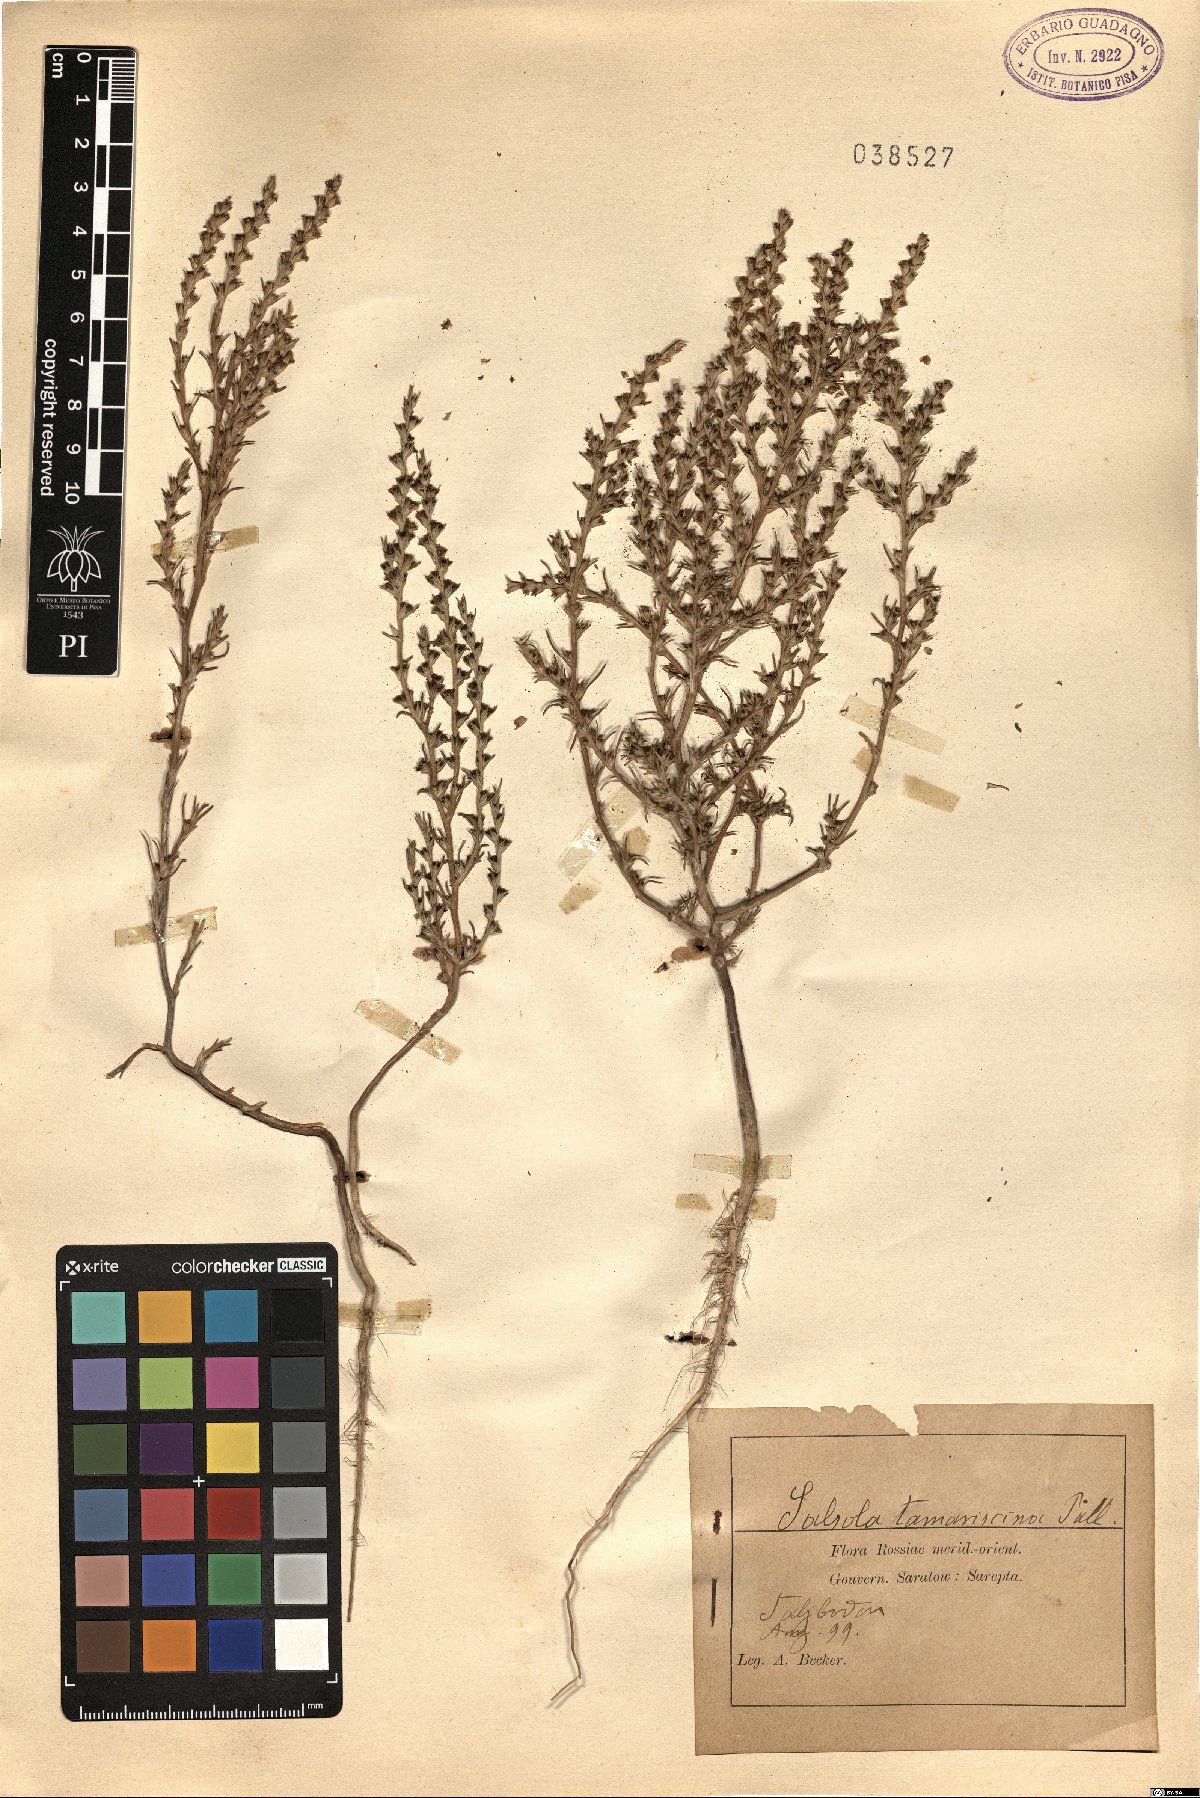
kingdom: Plantae
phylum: Tracheophyta
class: Magnoliopsida
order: Caryophyllales
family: Amaranthaceae
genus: Salsola
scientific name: Salsola tamariscina
